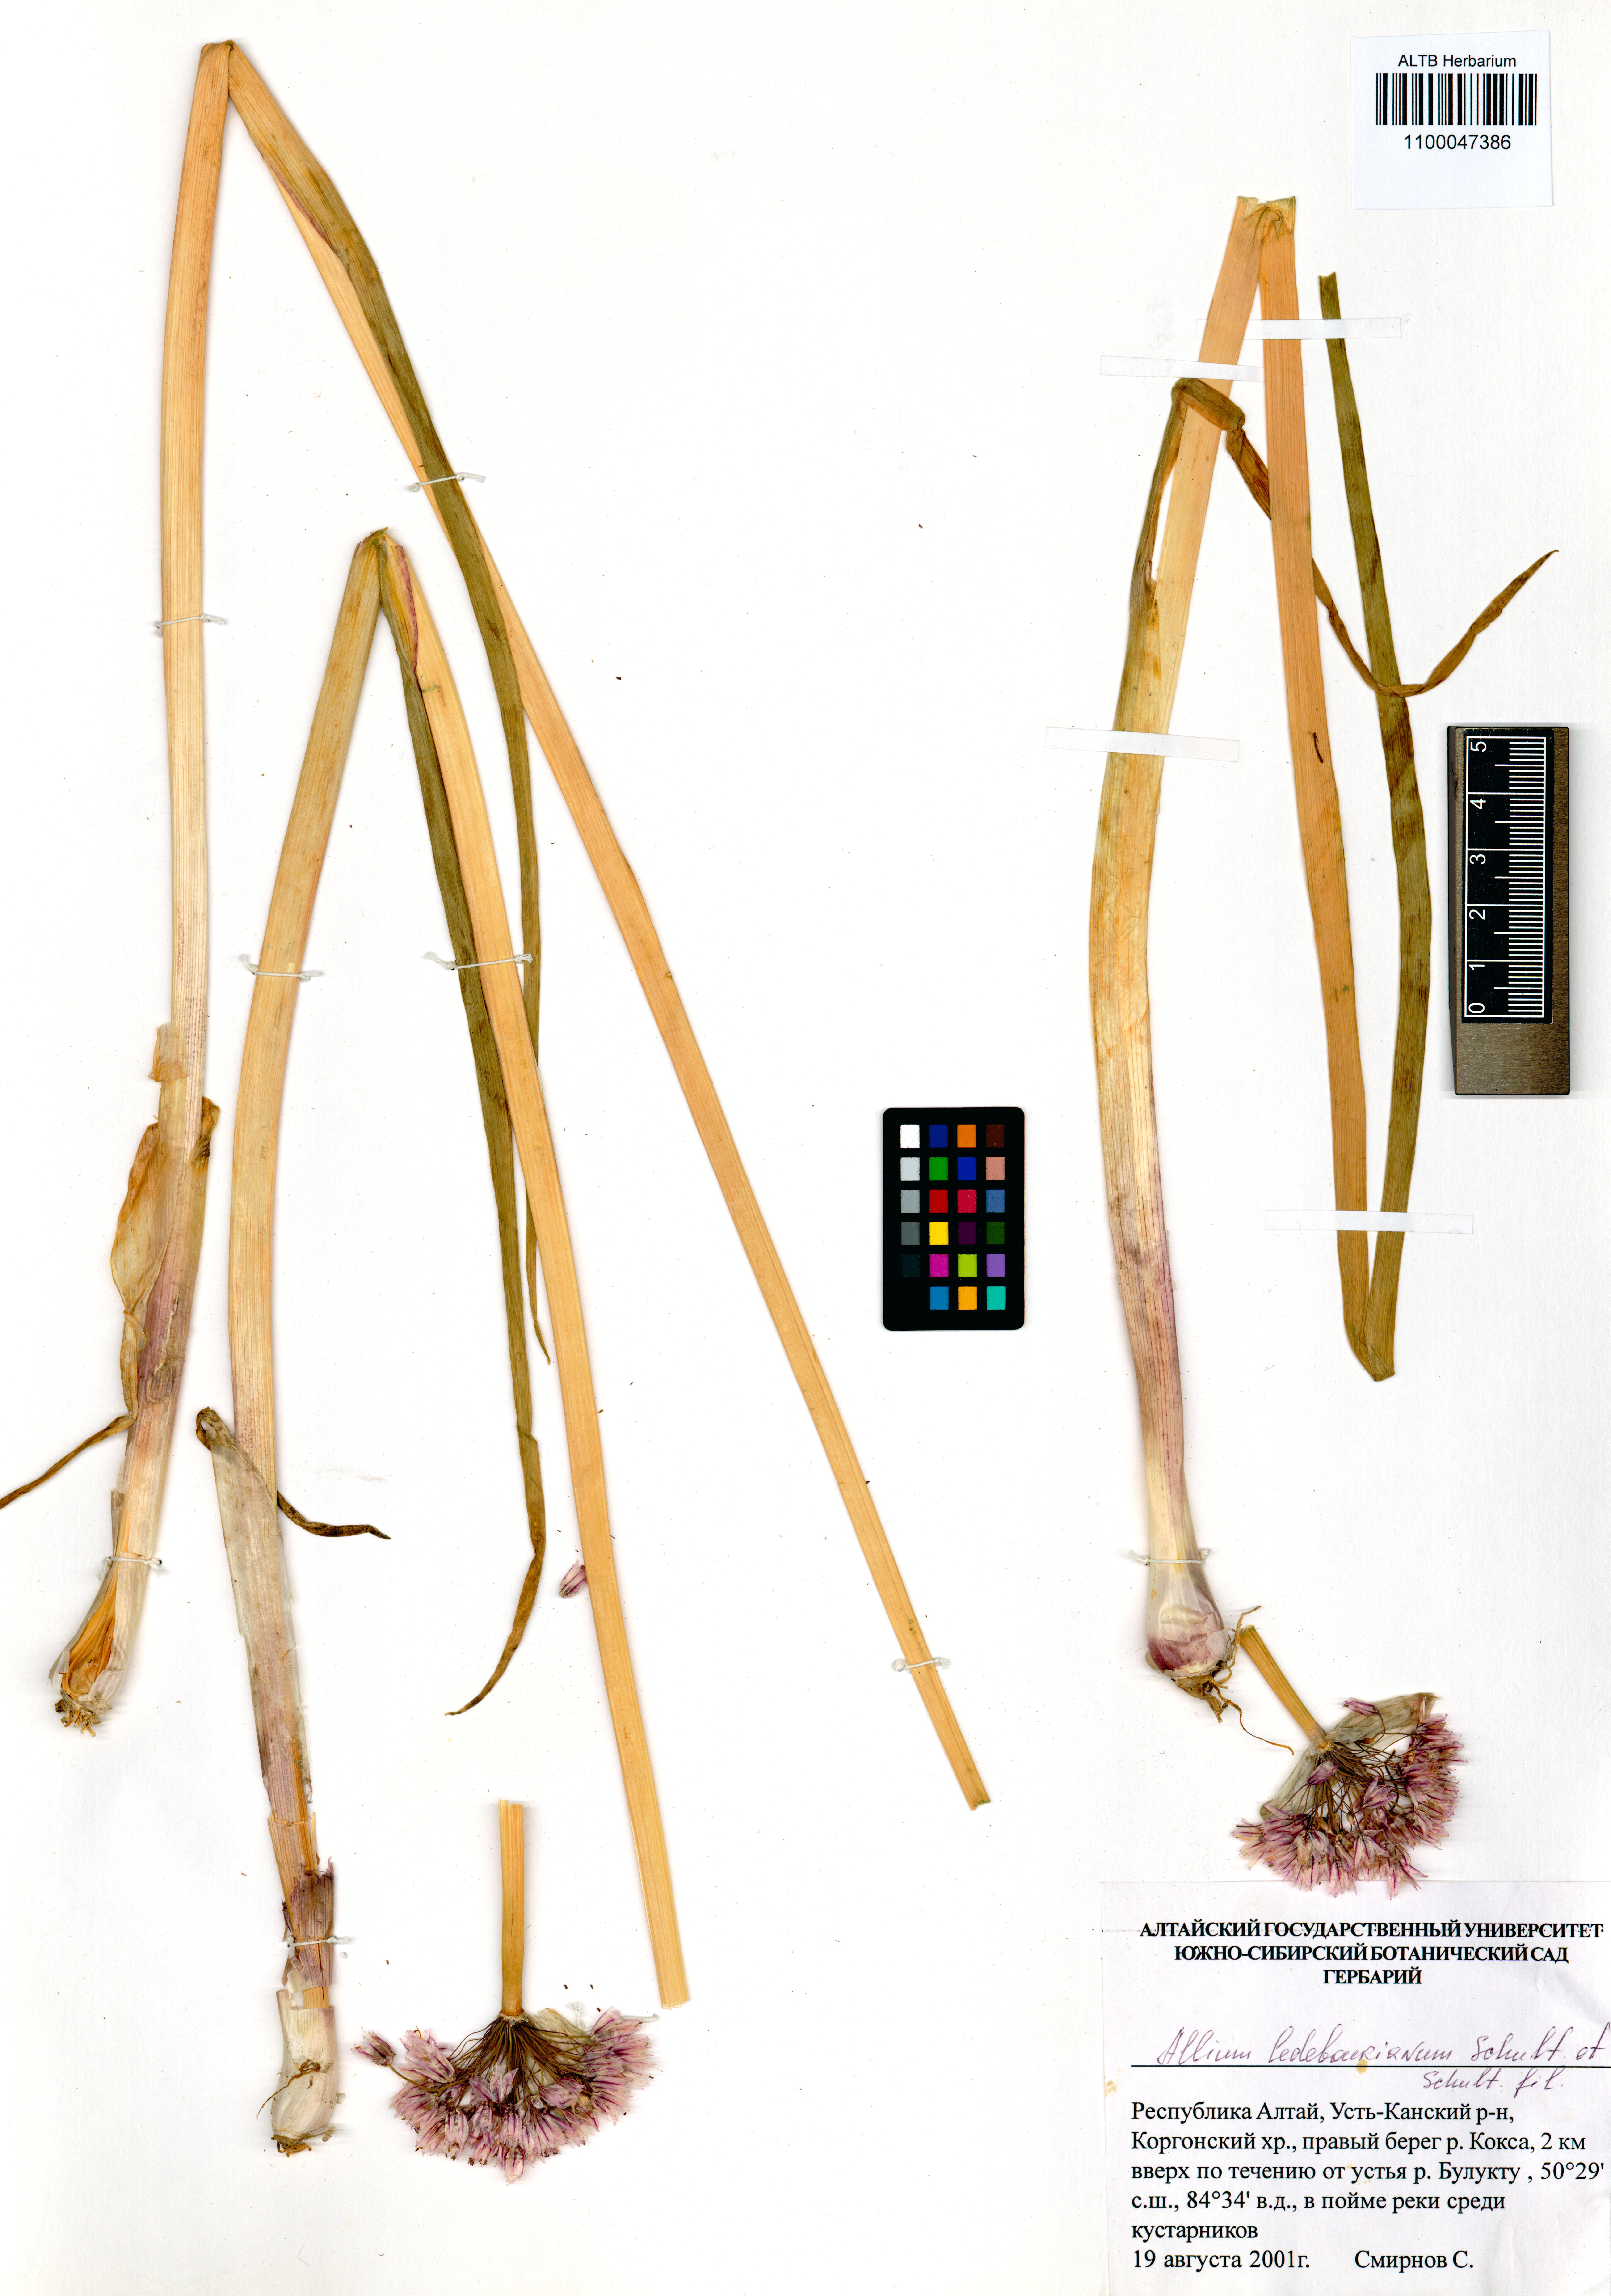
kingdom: Plantae
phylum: Tracheophyta
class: Liliopsida
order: Asparagales
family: Amaryllidaceae
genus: Allium
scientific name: Allium ledebourianum
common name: Ledebour chive
